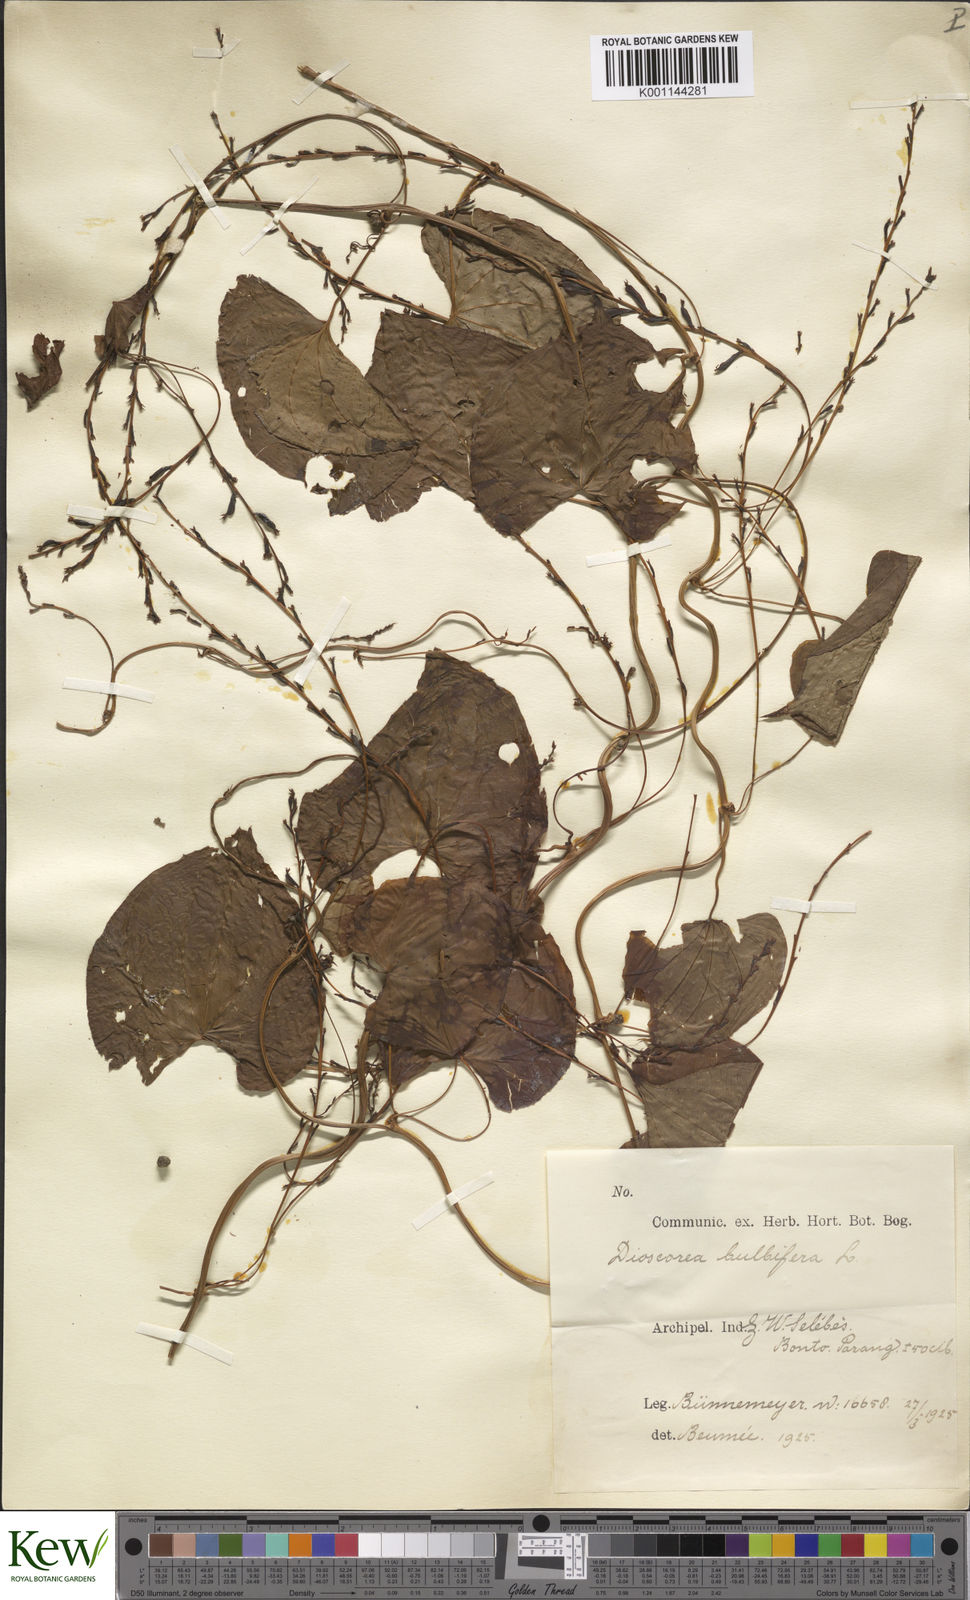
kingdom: Plantae
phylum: Tracheophyta
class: Liliopsida
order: Dioscoreales
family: Dioscoreaceae
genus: Dioscorea
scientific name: Dioscorea bulbifera
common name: Air yam
